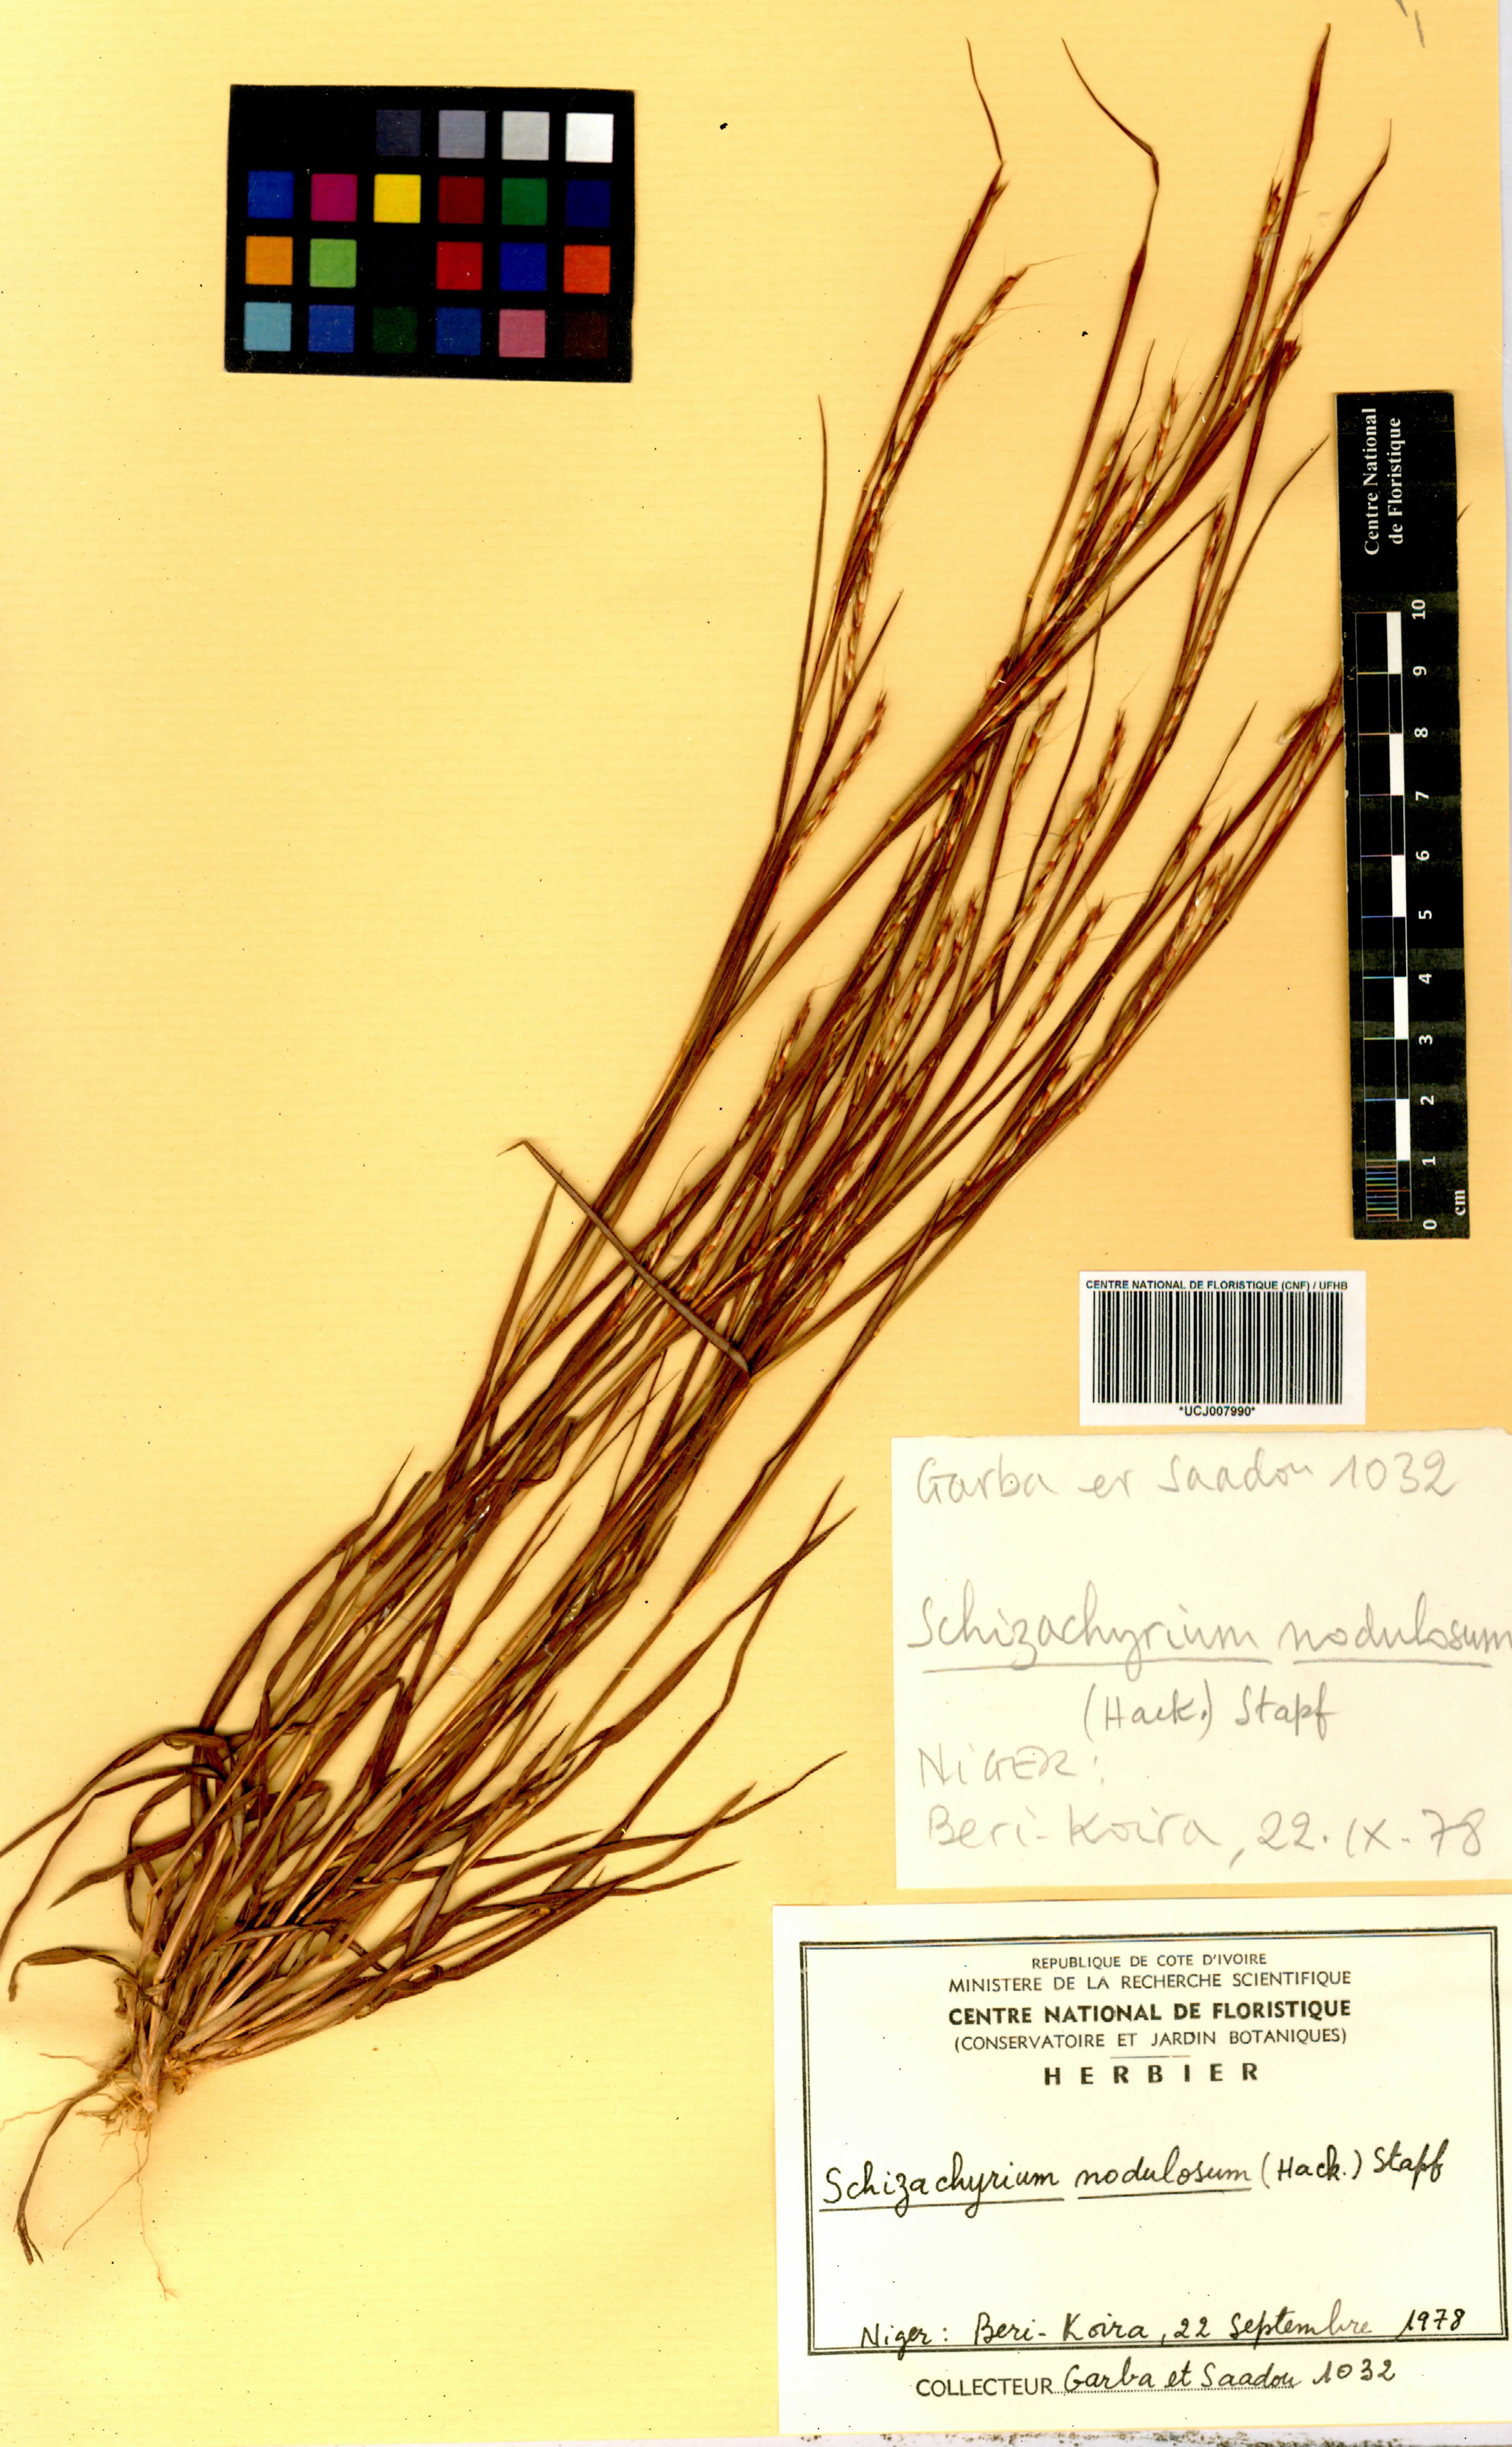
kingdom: Plantae
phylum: Tracheophyta
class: Liliopsida
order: Poales
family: Poaceae
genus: Schizachyrium
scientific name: Schizachyrium nodulosum
